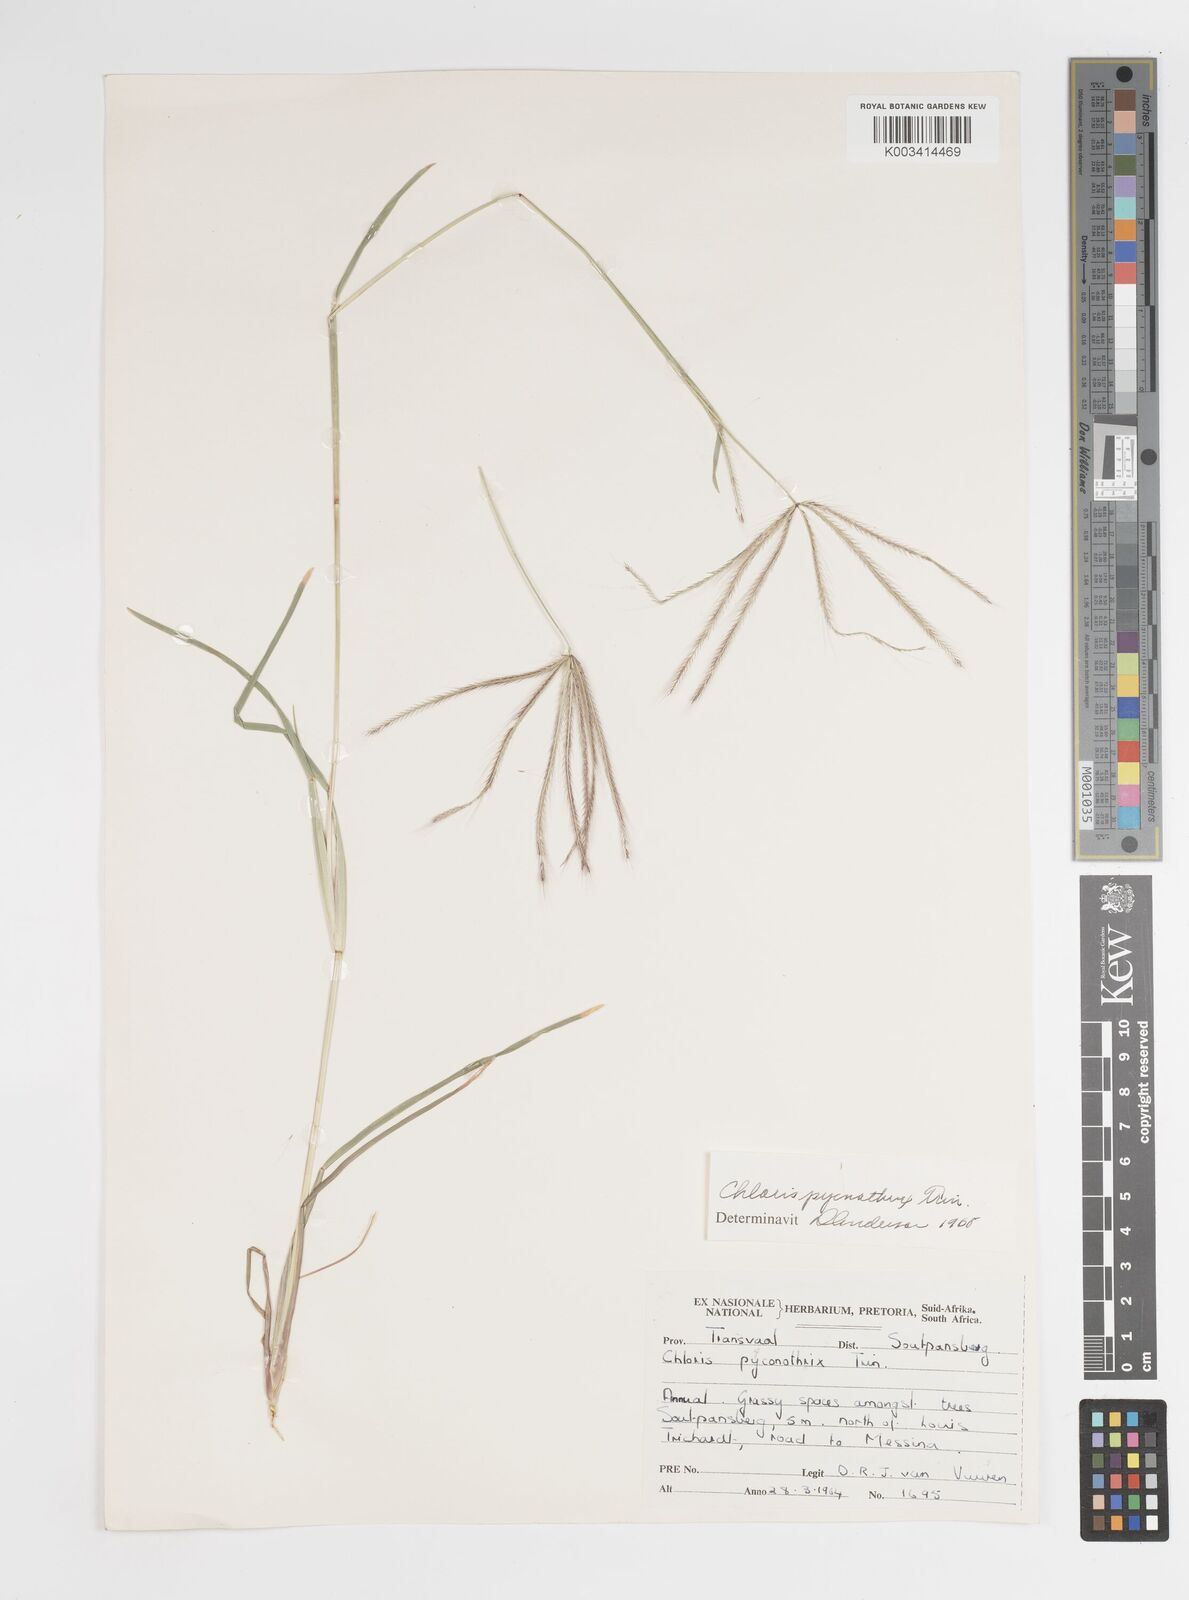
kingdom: Plantae
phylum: Tracheophyta
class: Liliopsida
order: Poales
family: Poaceae
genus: Chloris
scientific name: Chloris pycnothrix
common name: Spiderweb chloris
